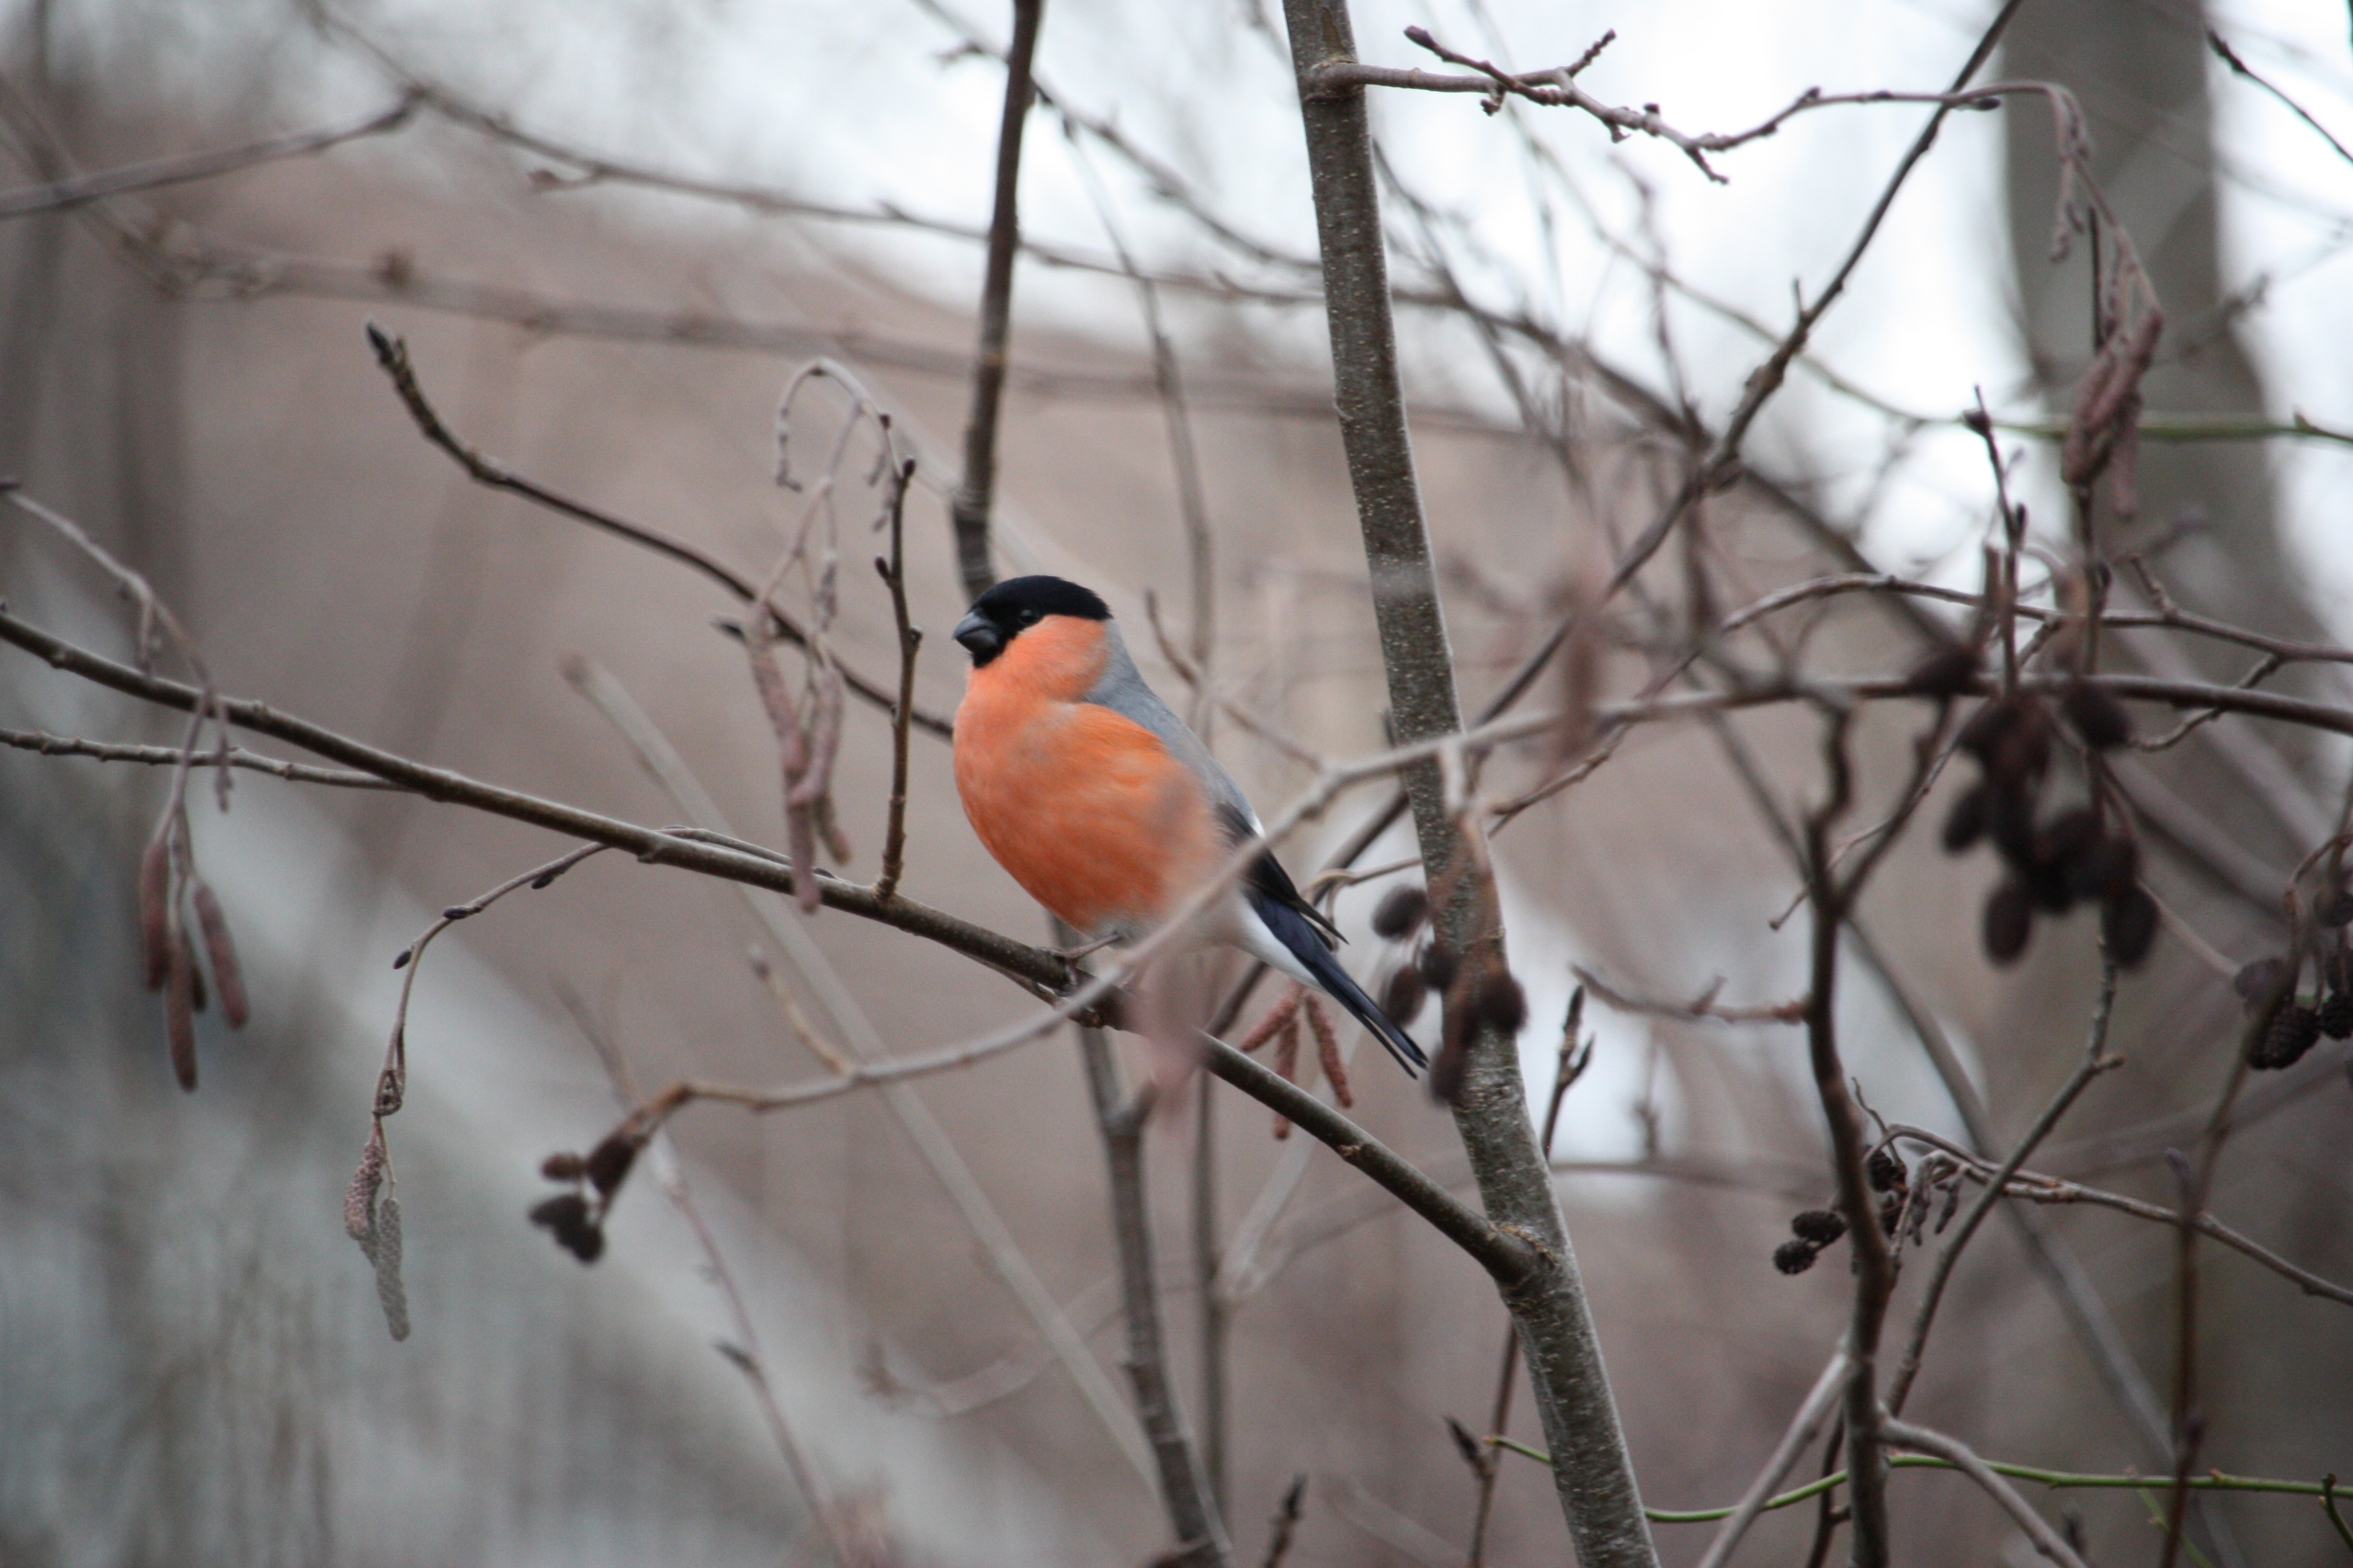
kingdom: Animalia
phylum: Chordata
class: Aves
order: Passeriformes
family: Fringillidae
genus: Pyrrhula
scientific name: Pyrrhula pyrrhula
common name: Dompap
